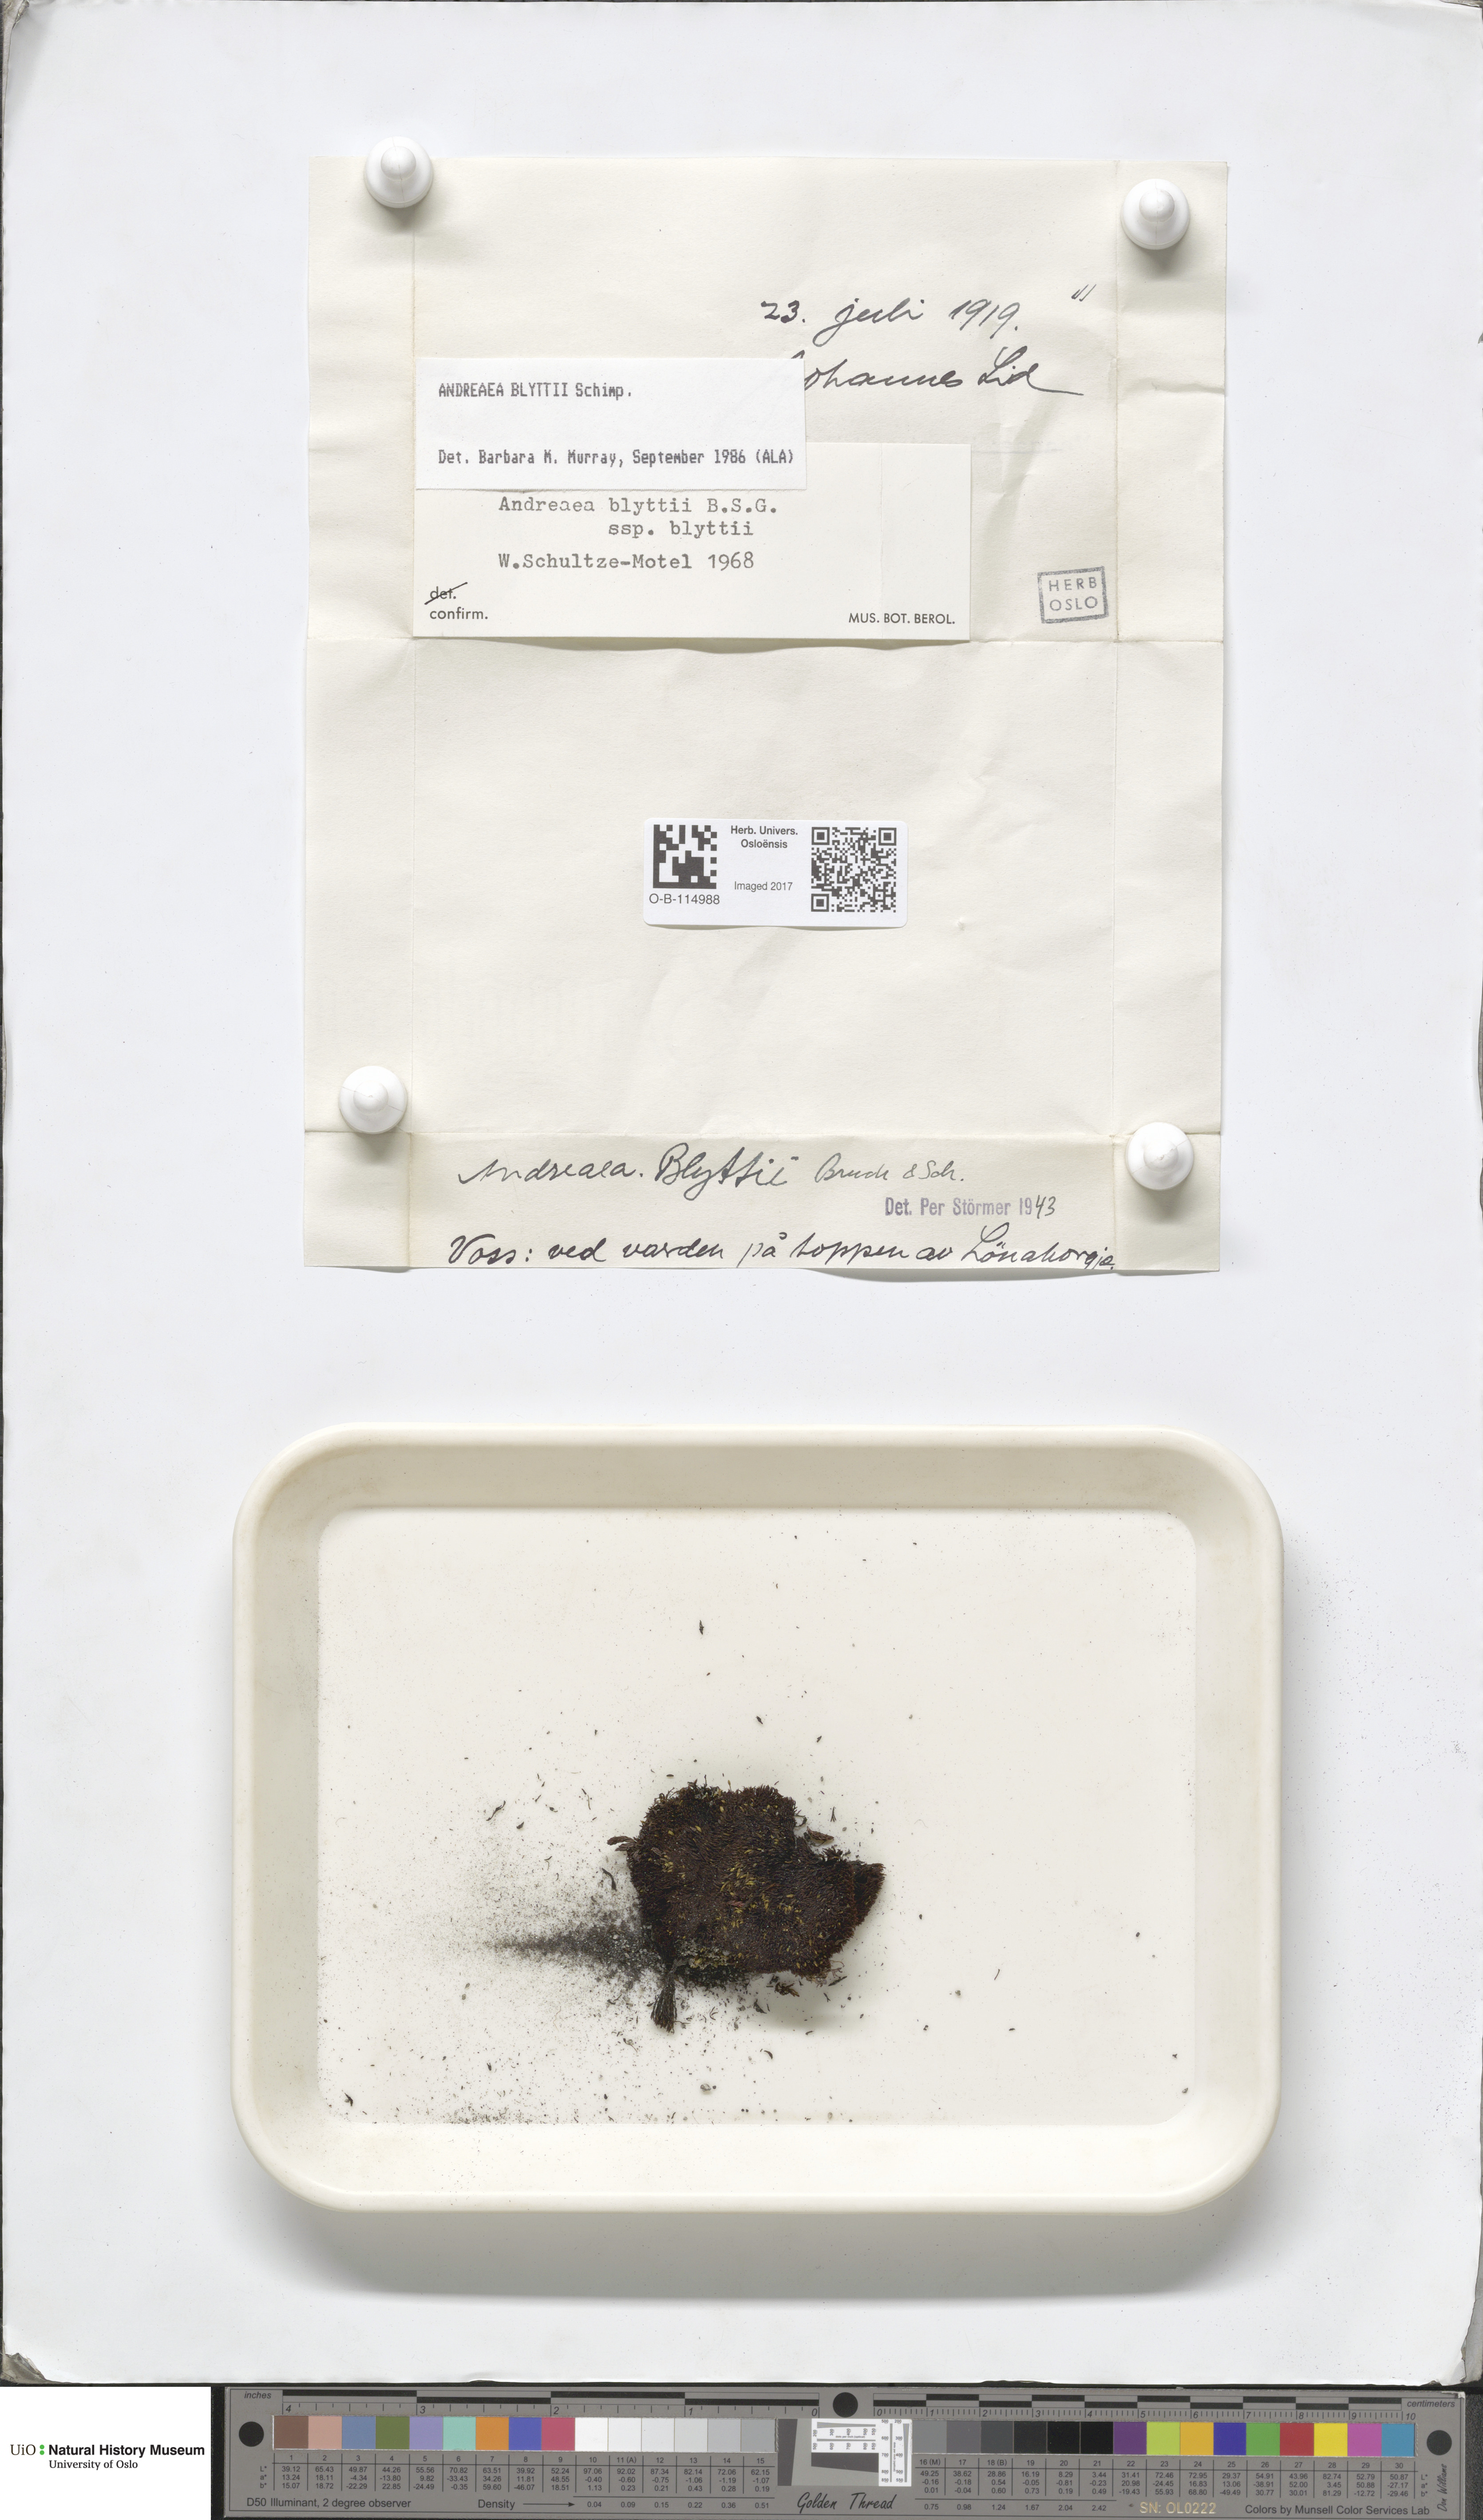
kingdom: Plantae
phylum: Bryophyta
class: Andreaeopsida
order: Andreaeales
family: Andreaeaceae
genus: Andreaea
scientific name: Andreaea hookeri
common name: Alpine rock-moss
